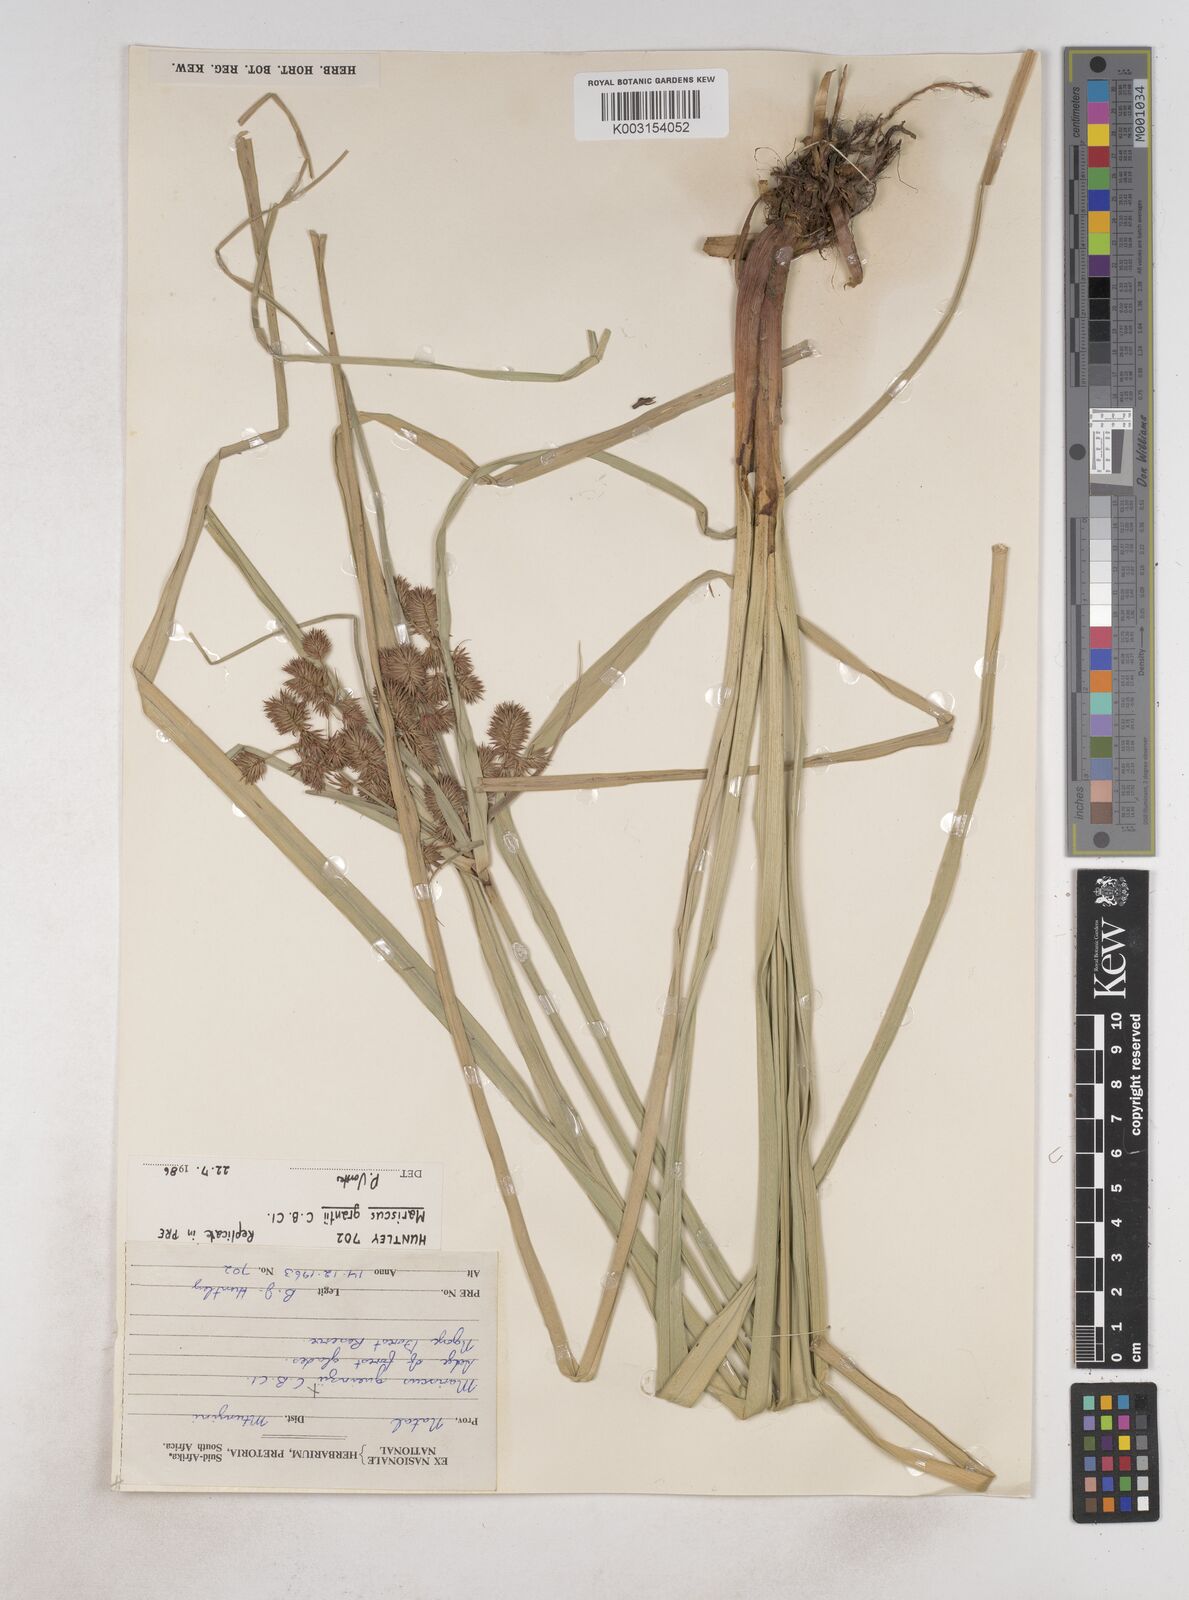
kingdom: Plantae
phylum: Tracheophyta
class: Liliopsida
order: Poales
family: Cyperaceae
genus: Cyperus
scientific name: Cyperus owanii
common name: Owan's flatsedge
